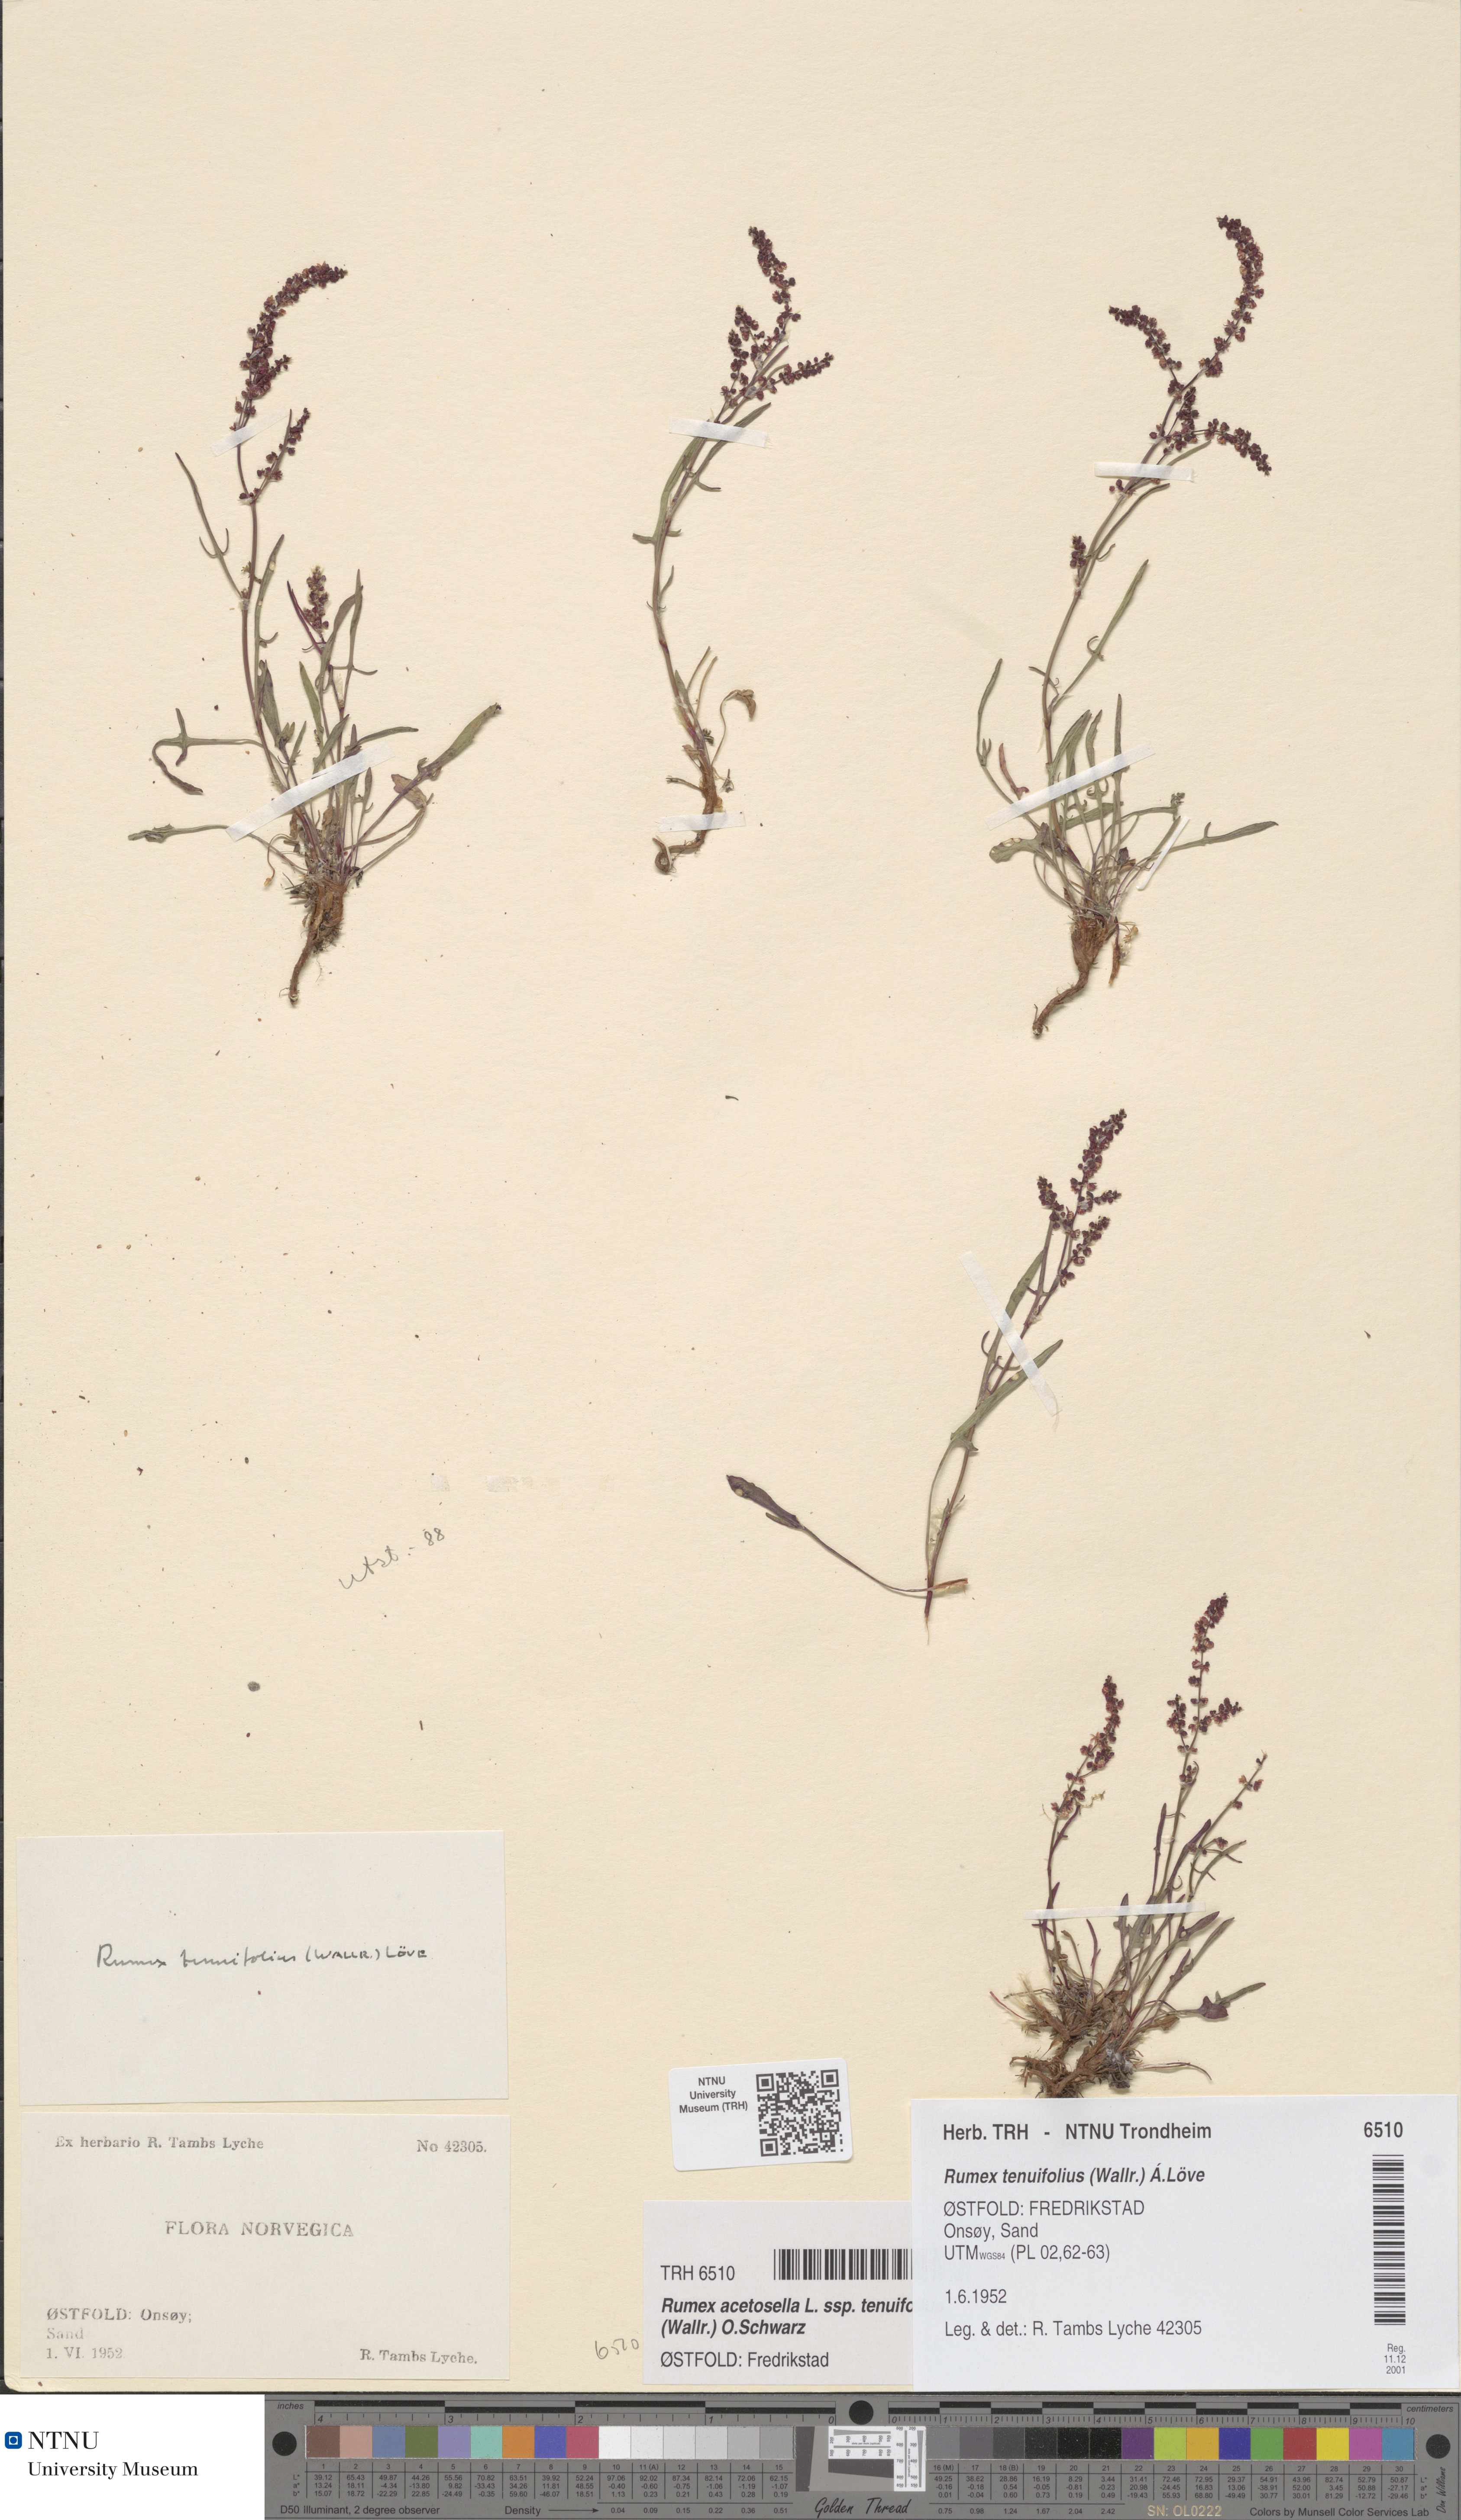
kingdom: Plantae
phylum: Tracheophyta
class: Magnoliopsida
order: Caryophyllales
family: Polygonaceae
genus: Rumex
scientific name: Rumex acetosella
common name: Common sheep sorrel
